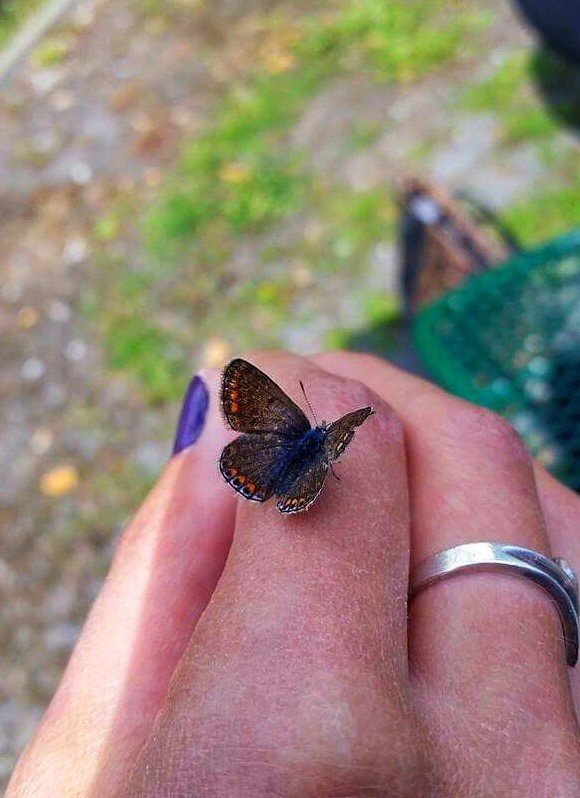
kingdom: Animalia
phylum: Arthropoda
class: Insecta
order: Lepidoptera
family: Lycaenidae
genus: Polyommatus
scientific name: Polyommatus icarus
